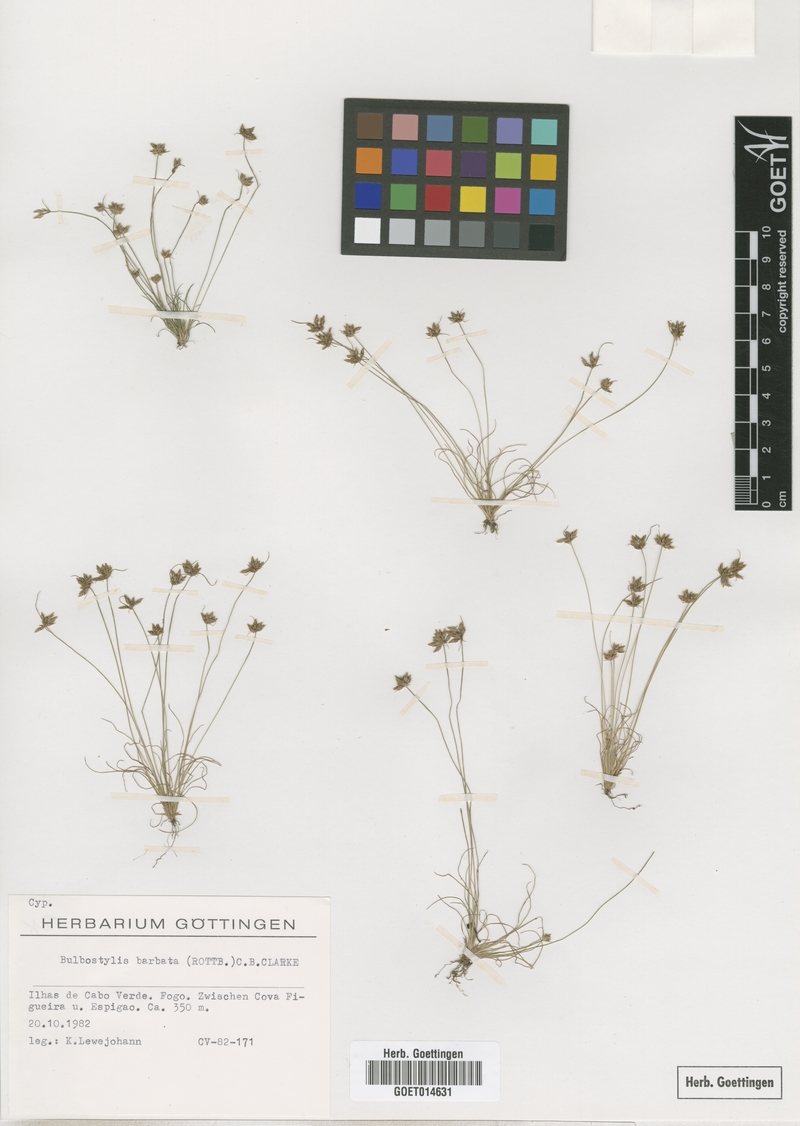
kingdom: Plantae
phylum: Tracheophyta
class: Liliopsida
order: Poales
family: Cyperaceae
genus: Bulbostylis
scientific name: Bulbostylis barbata
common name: Watergrass
